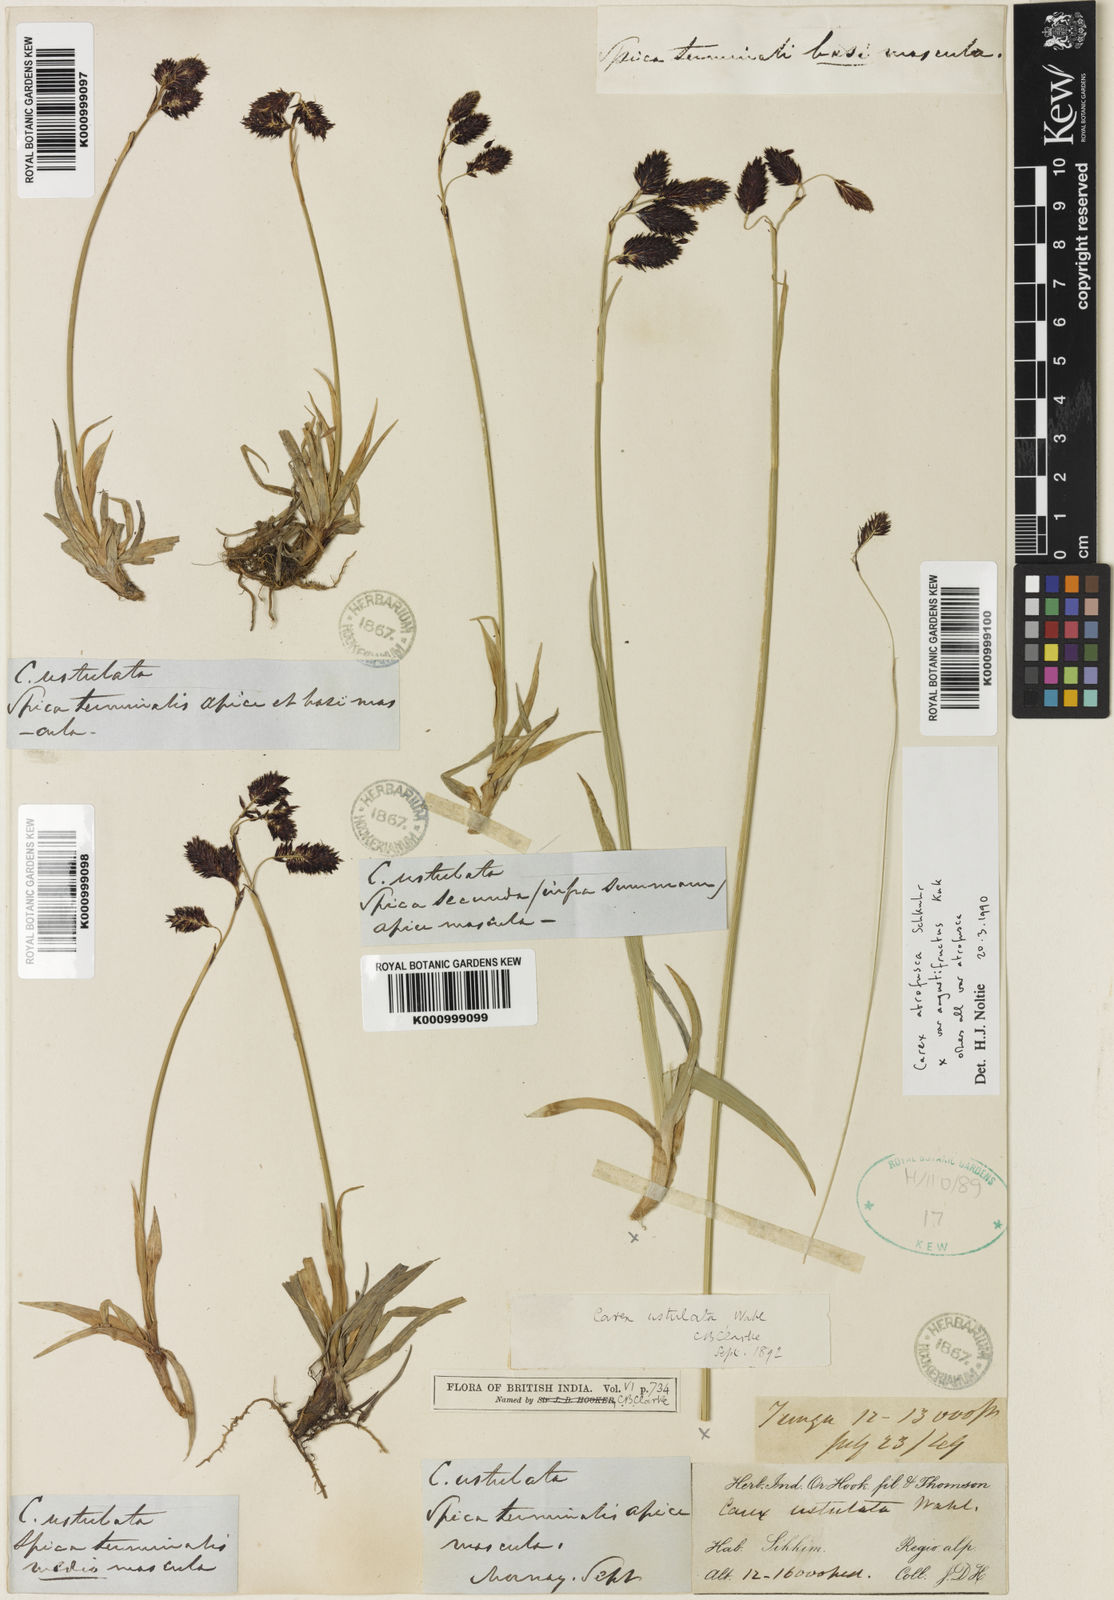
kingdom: Plantae
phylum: Tracheophyta
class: Liliopsida
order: Poales
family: Cyperaceae
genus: Carex
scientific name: Carex atrofusca
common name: Scorched alpine-sedge
